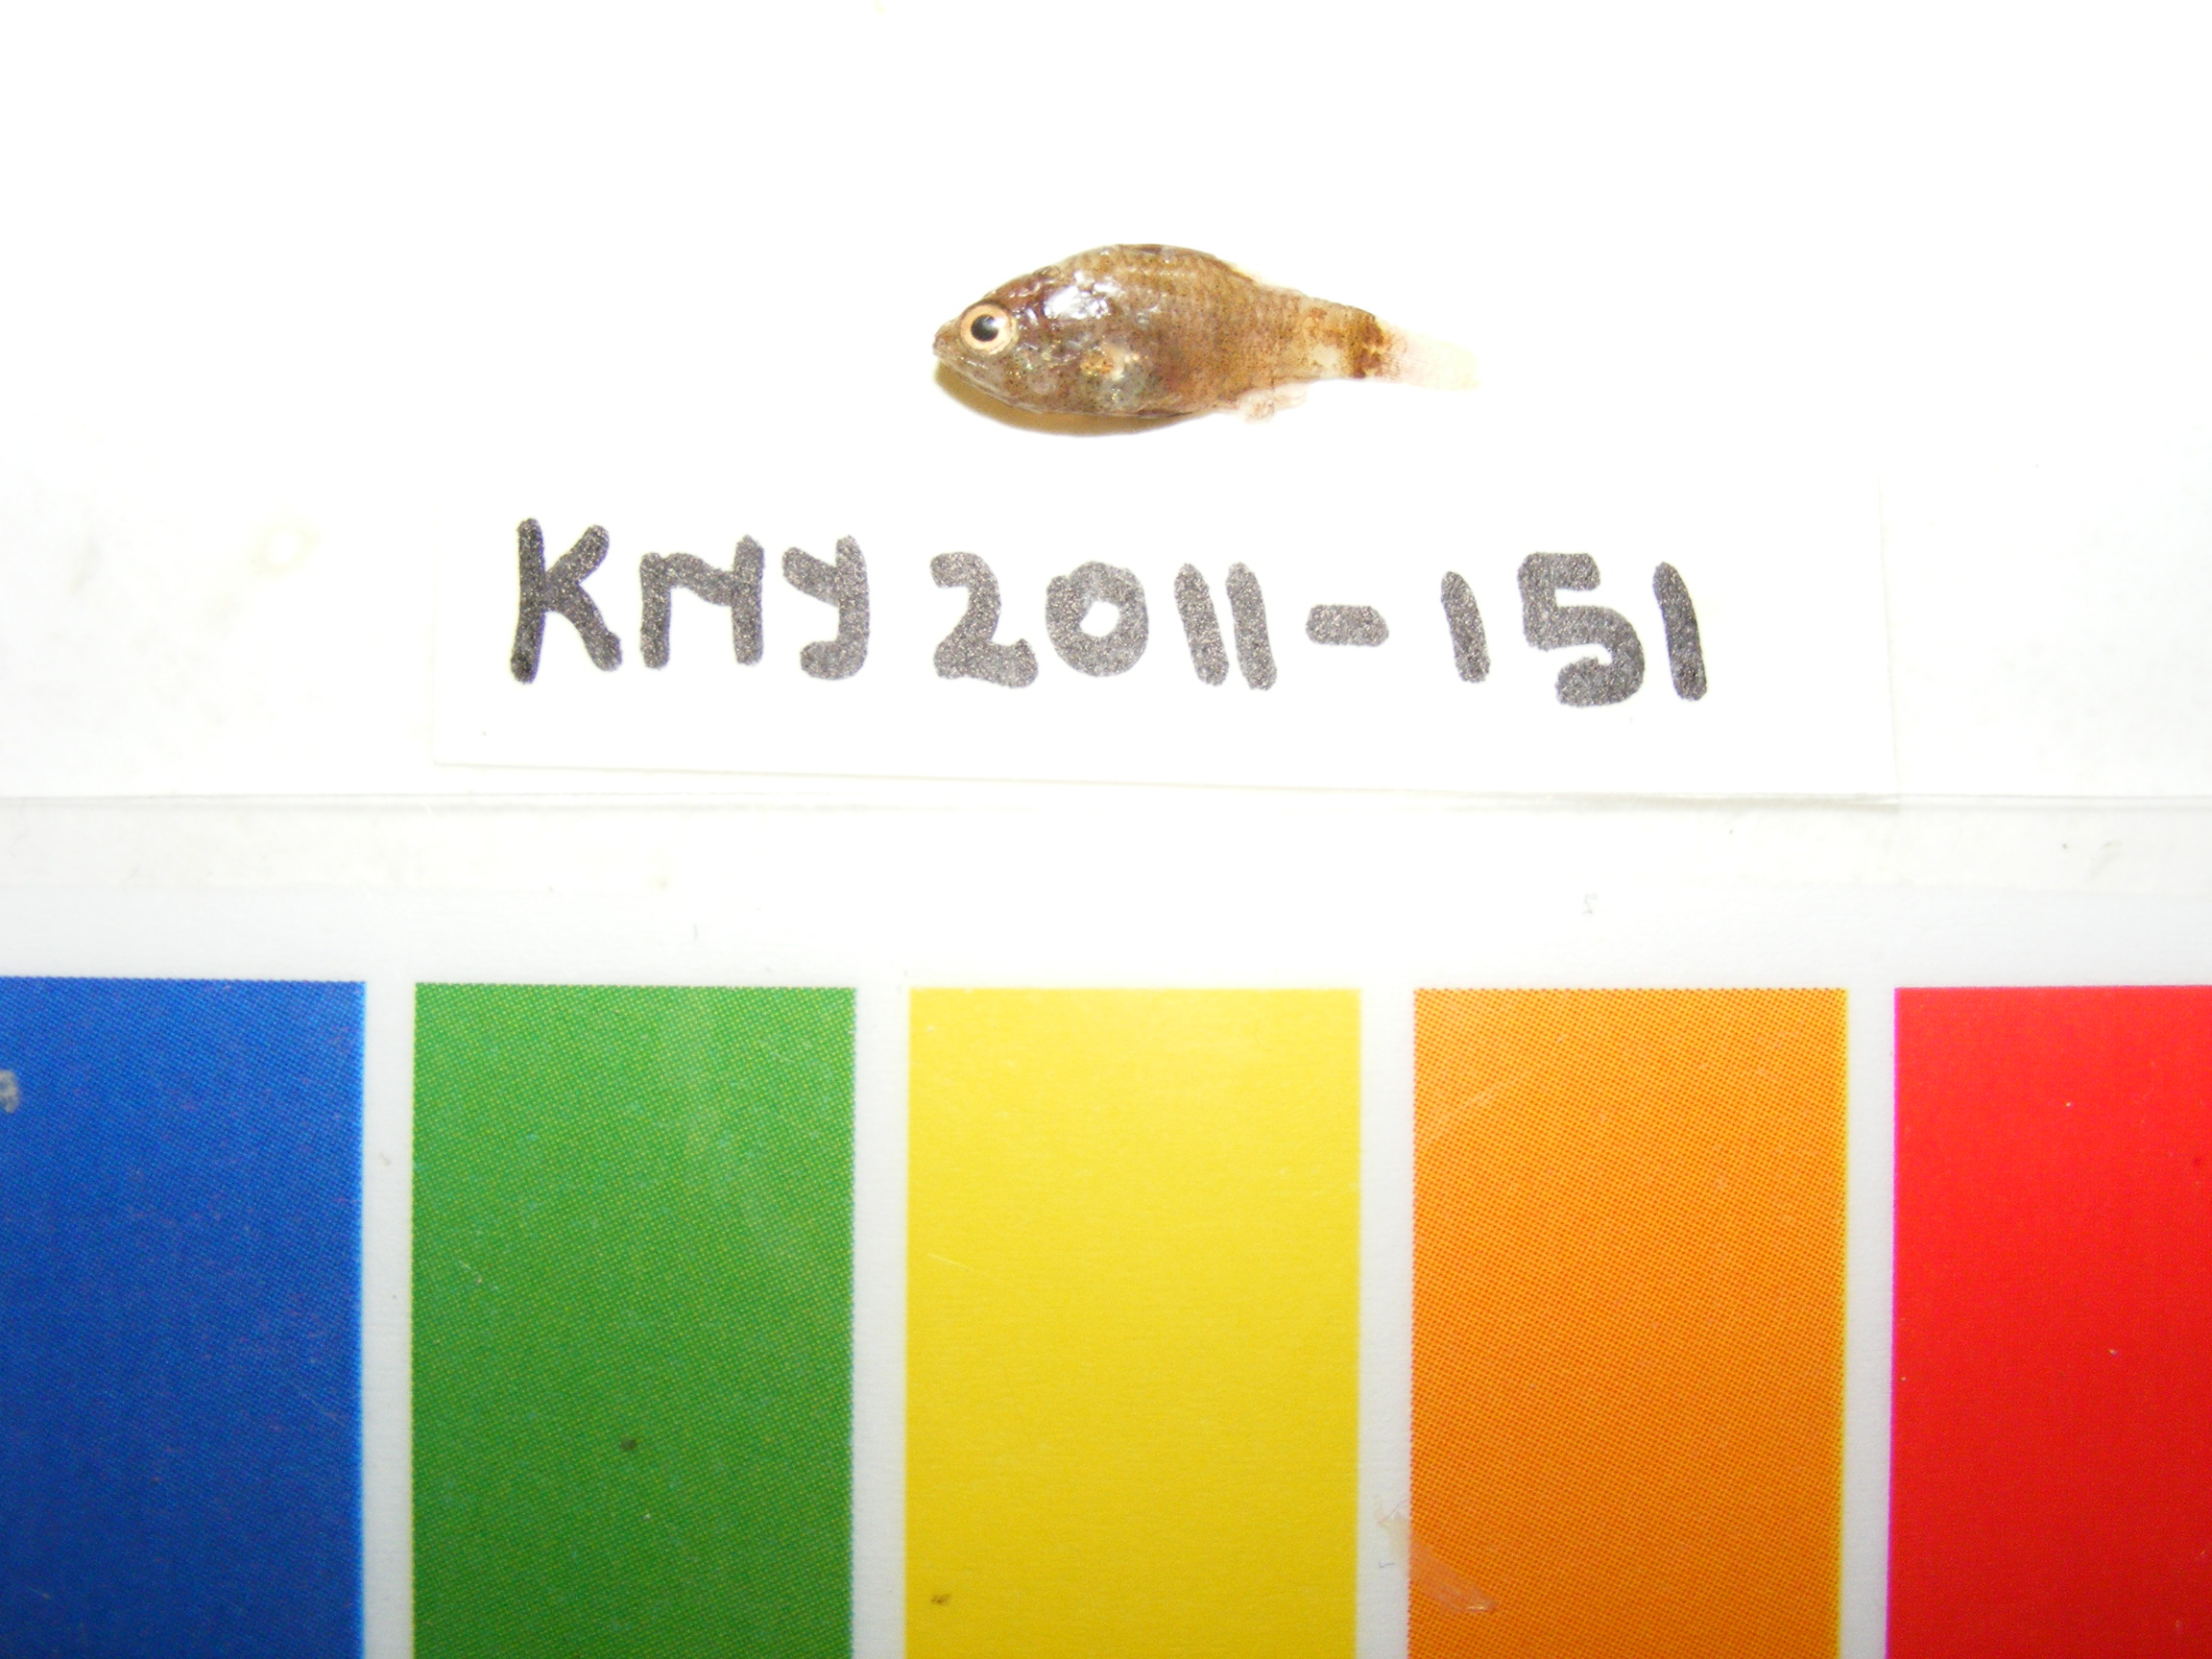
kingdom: Animalia
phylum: Chordata
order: Perciformes
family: Apogonidae
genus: Foa
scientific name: Foa
